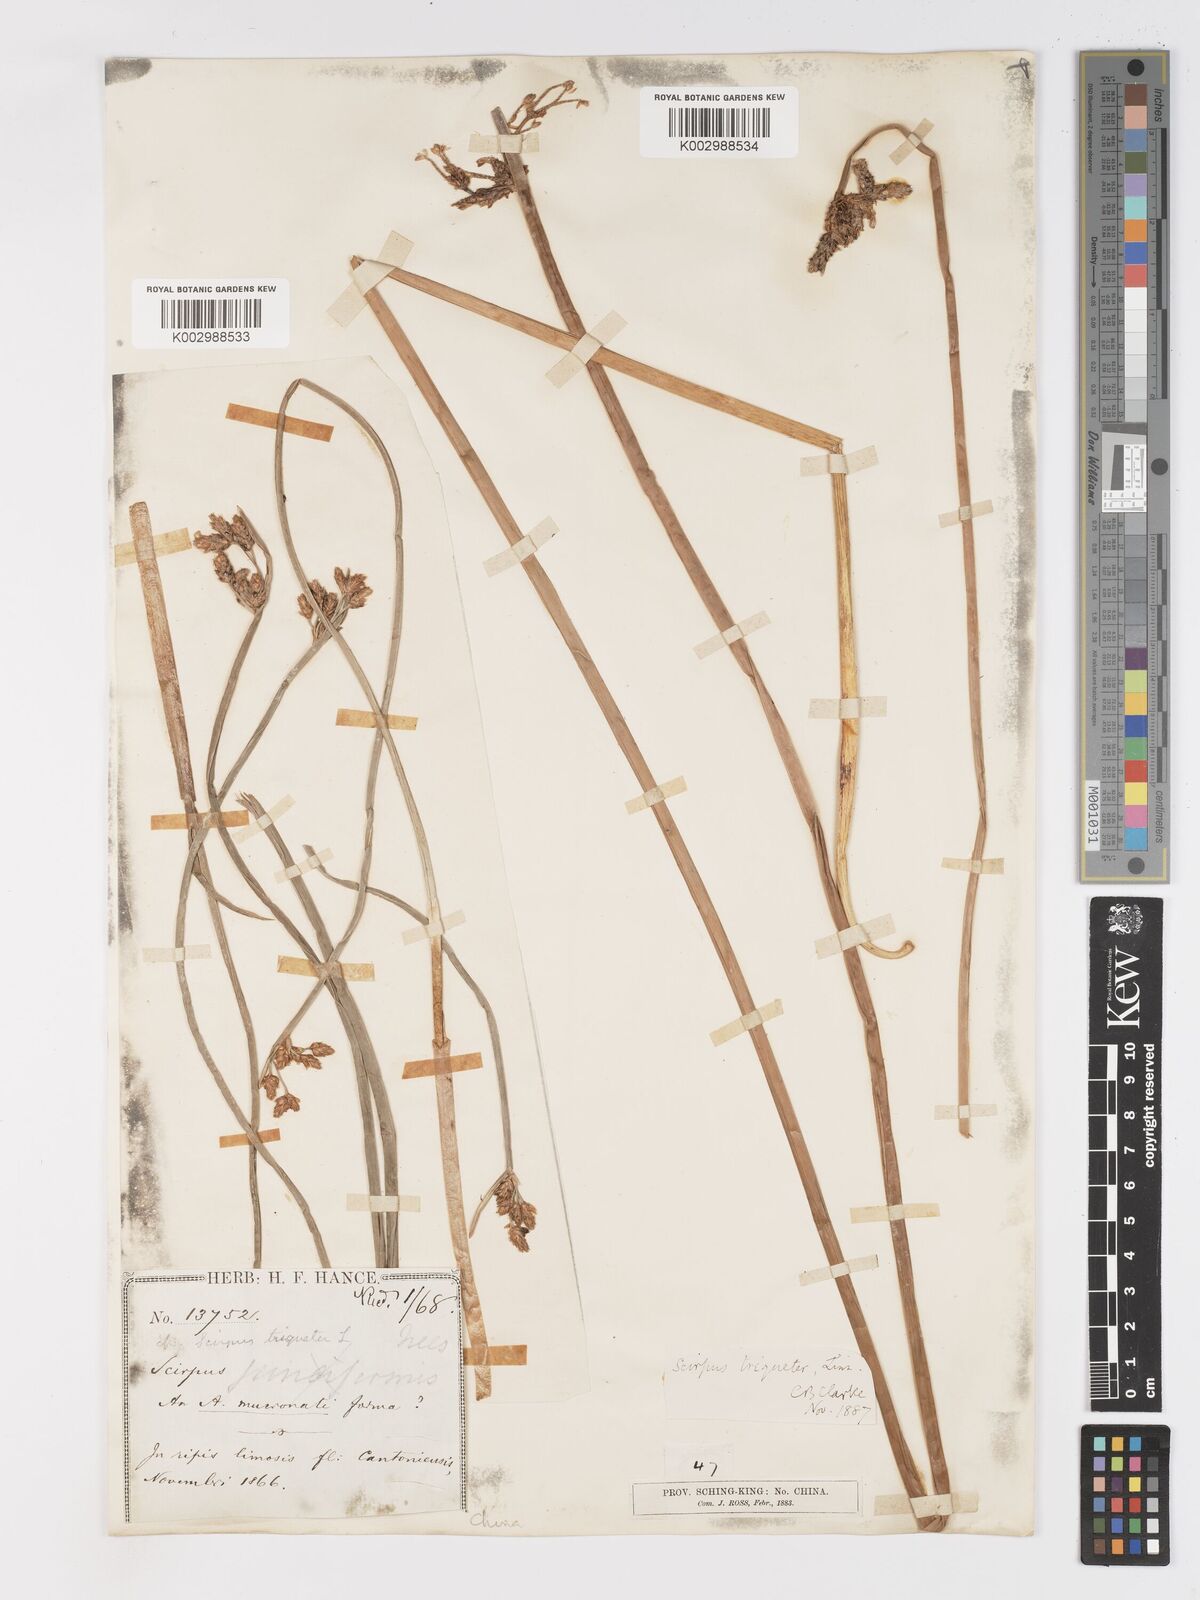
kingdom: Plantae
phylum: Tracheophyta
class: Liliopsida
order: Poales
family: Cyperaceae
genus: Schoenoplectus
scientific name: Schoenoplectus triqueter
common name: Triangular club-rush
